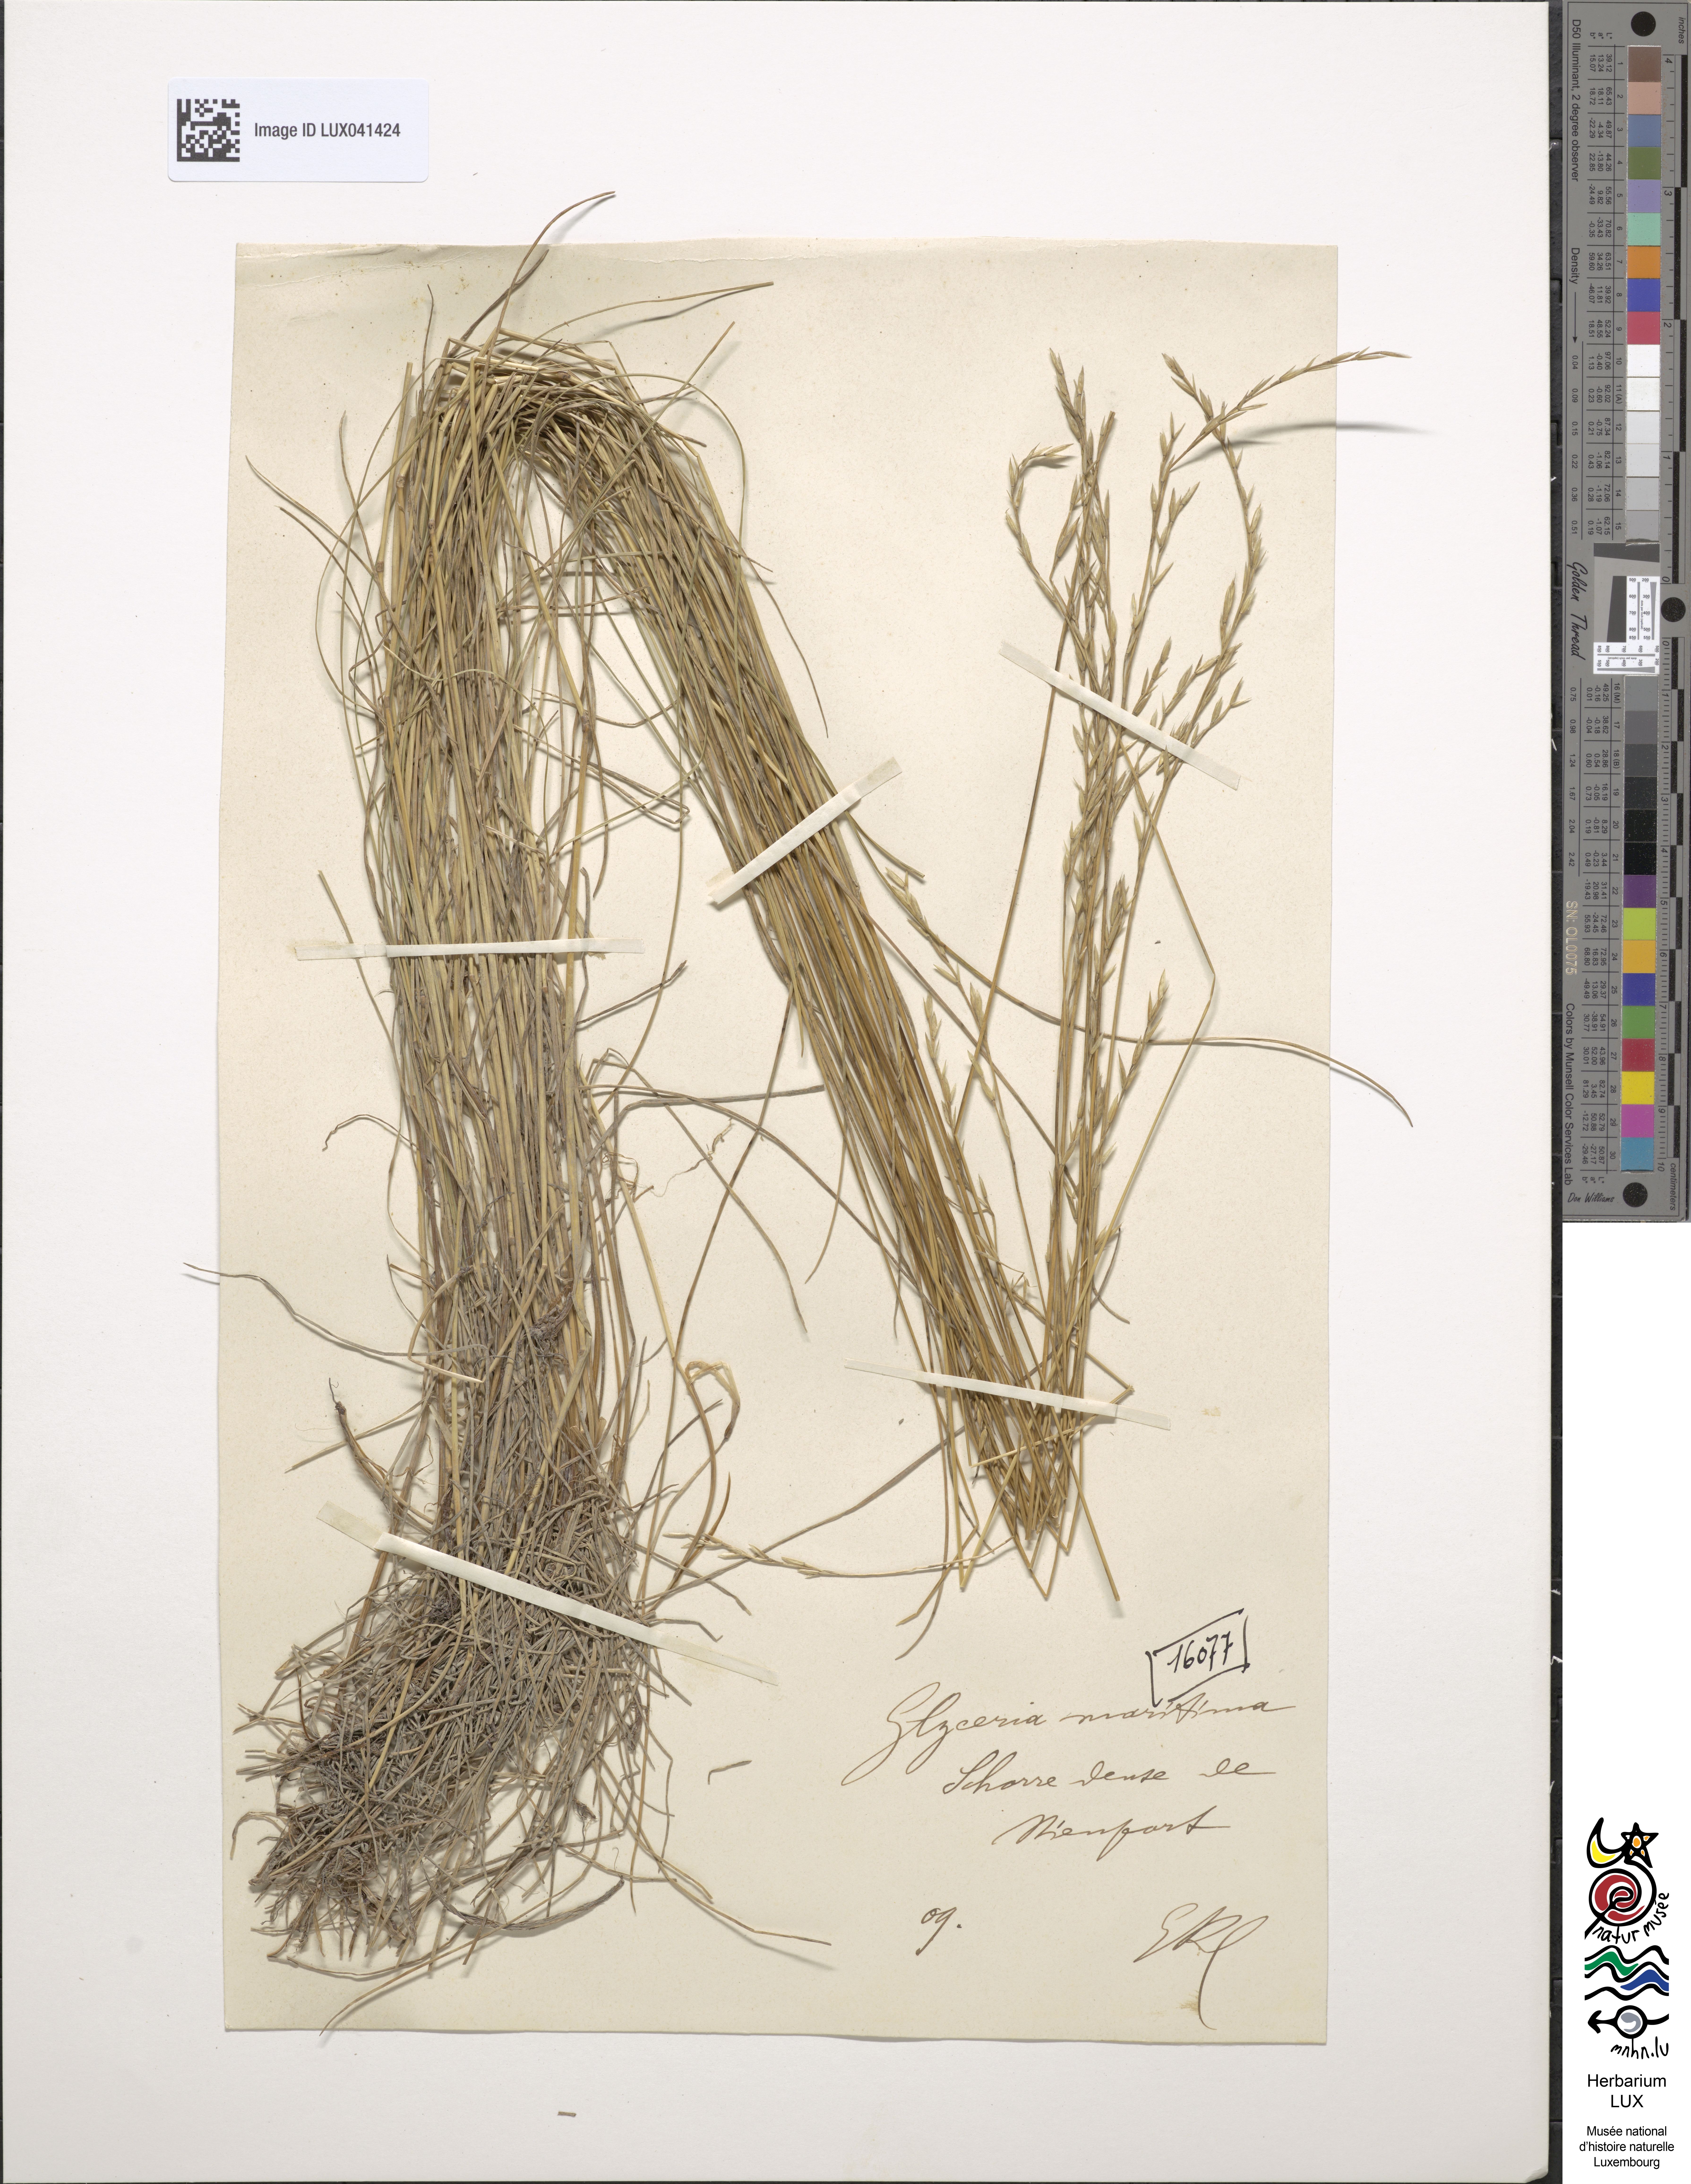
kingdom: Plantae
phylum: Tracheophyta
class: Liliopsida
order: Poales
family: Poaceae
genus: Puccinellia
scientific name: Puccinellia maritima
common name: Common saltmarsh grass
